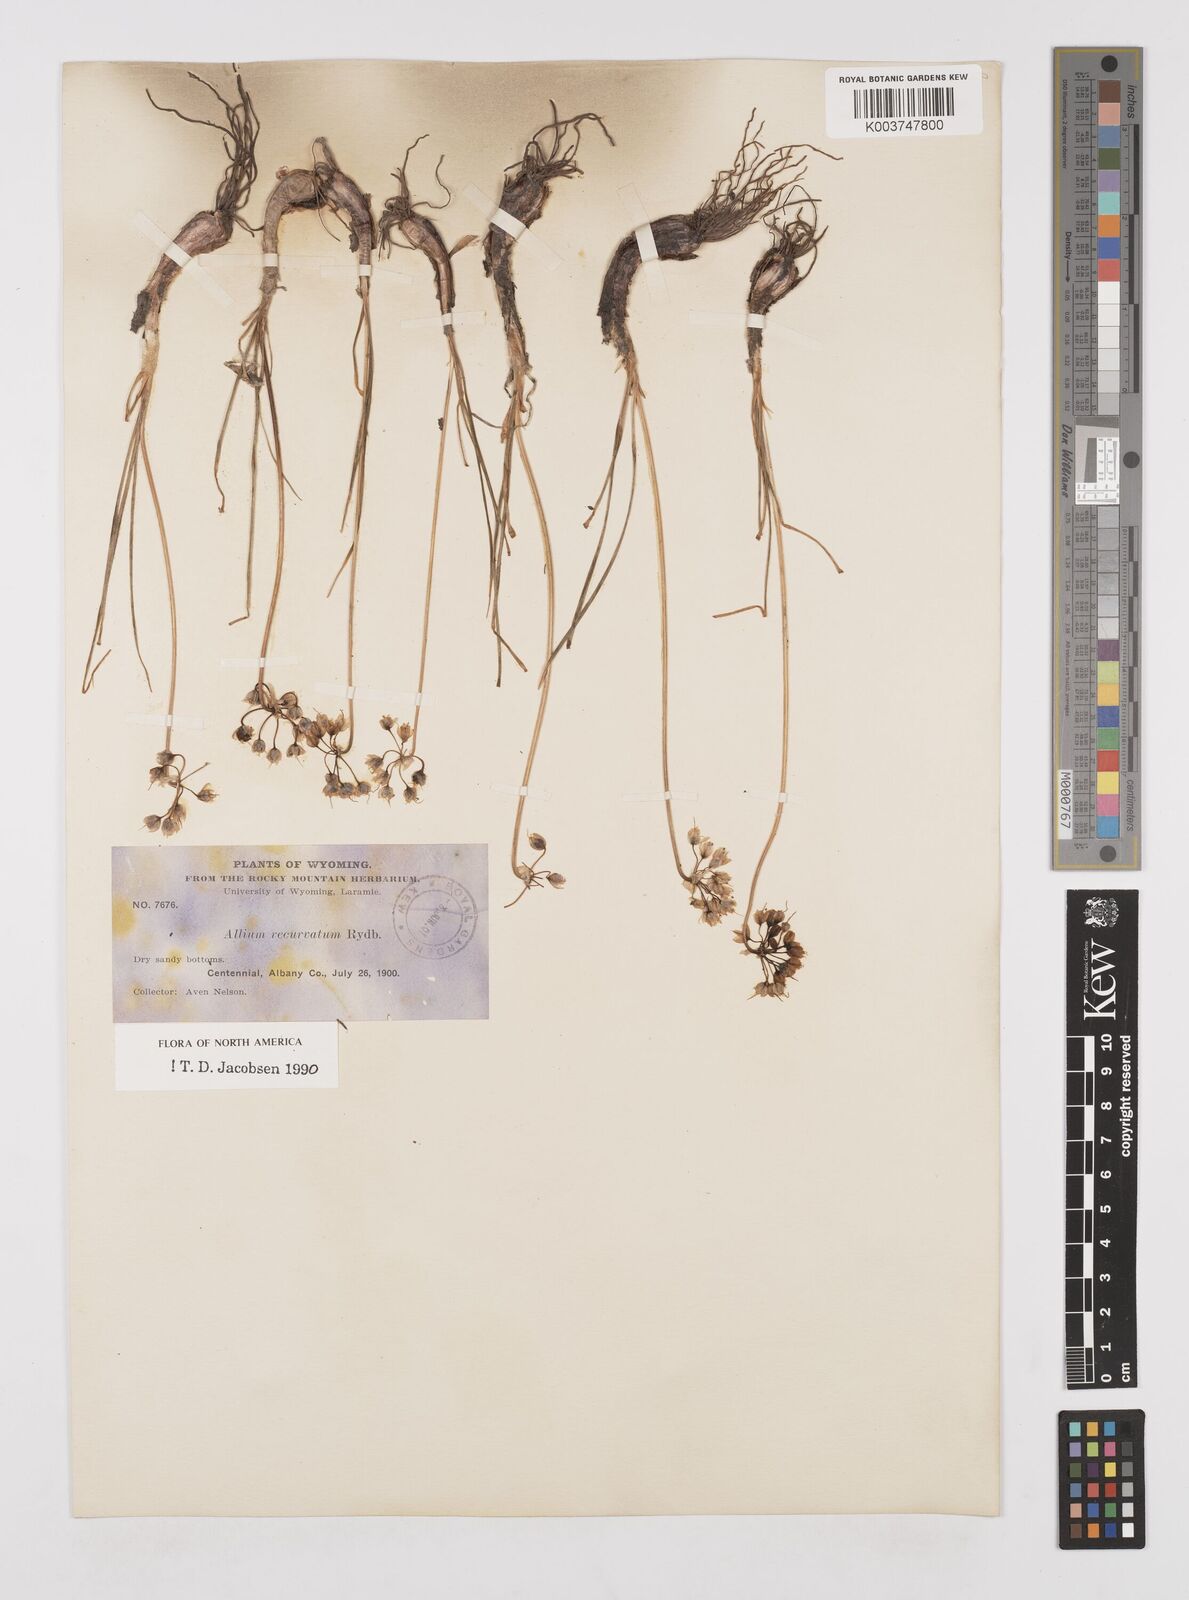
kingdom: Plantae
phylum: Tracheophyta
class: Liliopsida
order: Asparagales
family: Amaryllidaceae
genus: Allium
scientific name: Allium cernuum
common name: Nodding onion
